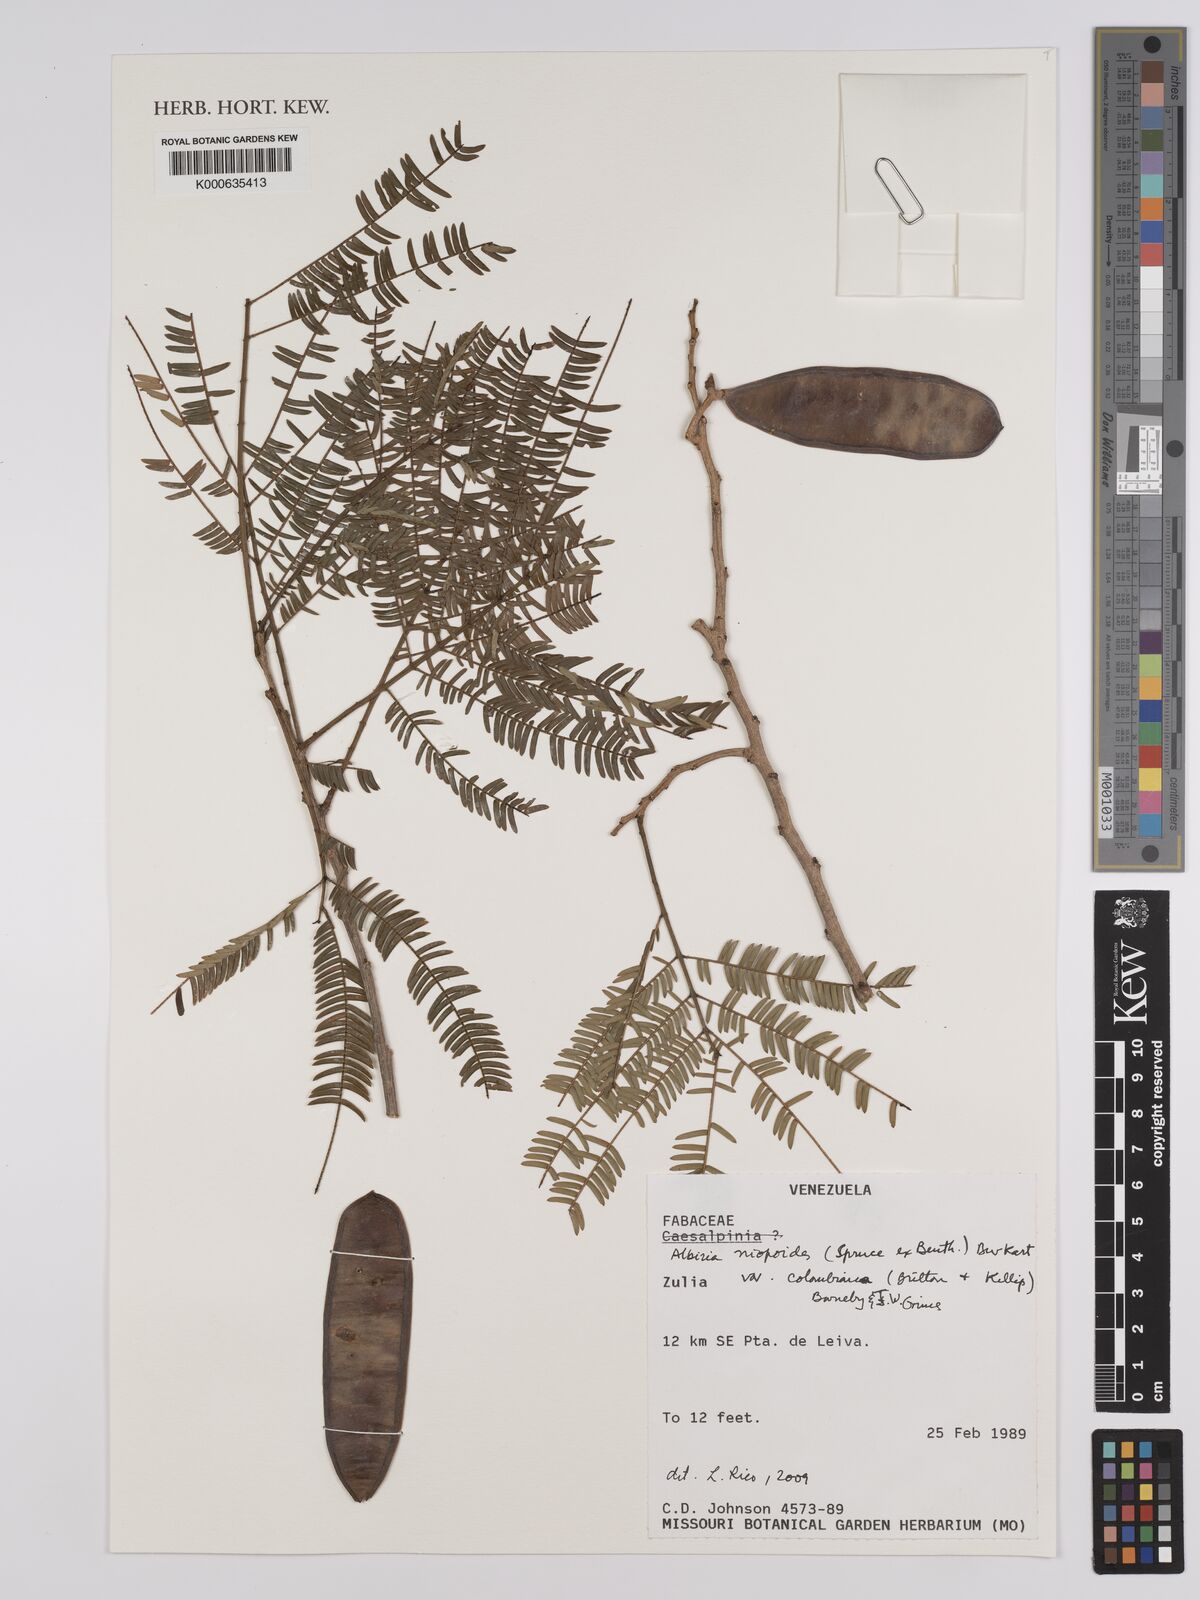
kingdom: Plantae
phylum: Tracheophyta
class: Magnoliopsida
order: Fabales
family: Fabaceae
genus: Albizia
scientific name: Albizia niopoides
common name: Silk tree
